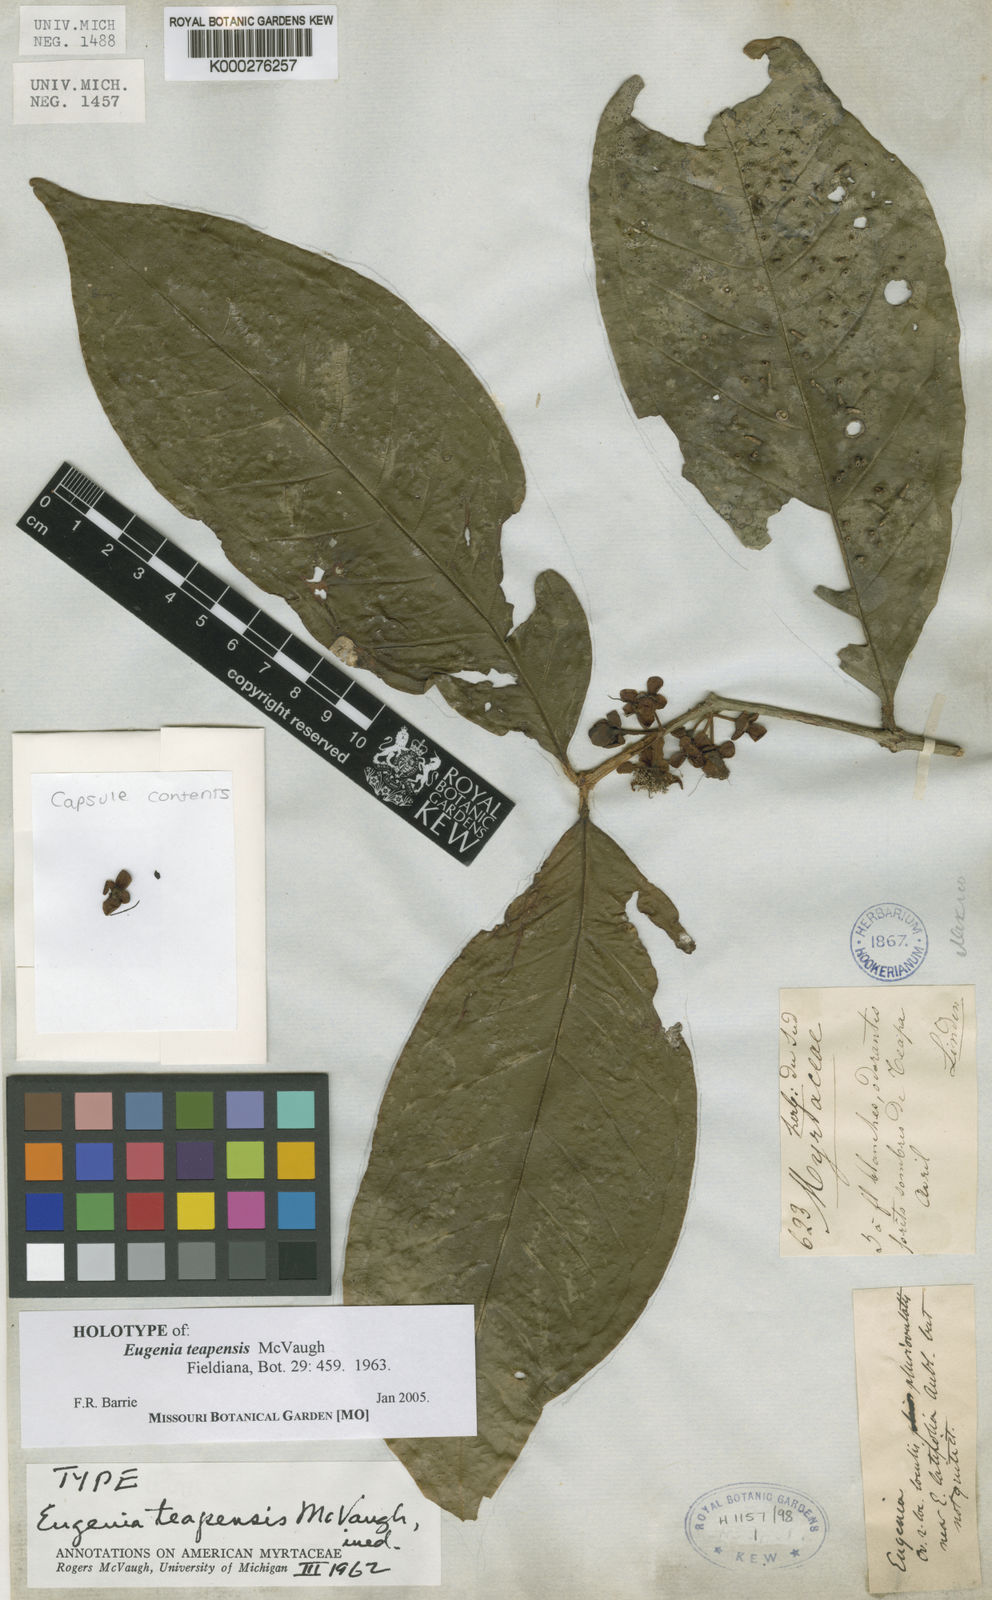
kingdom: Plantae
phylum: Tracheophyta
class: Magnoliopsida
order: Myrtales
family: Myrtaceae
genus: Eugenia
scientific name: Eugenia teapensis
